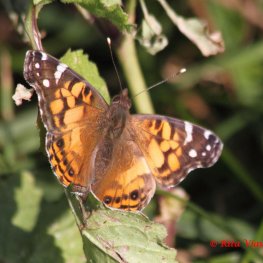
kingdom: Animalia
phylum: Arthropoda
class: Insecta
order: Lepidoptera
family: Nymphalidae
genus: Vanessa
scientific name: Vanessa virginiensis
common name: American Lady
